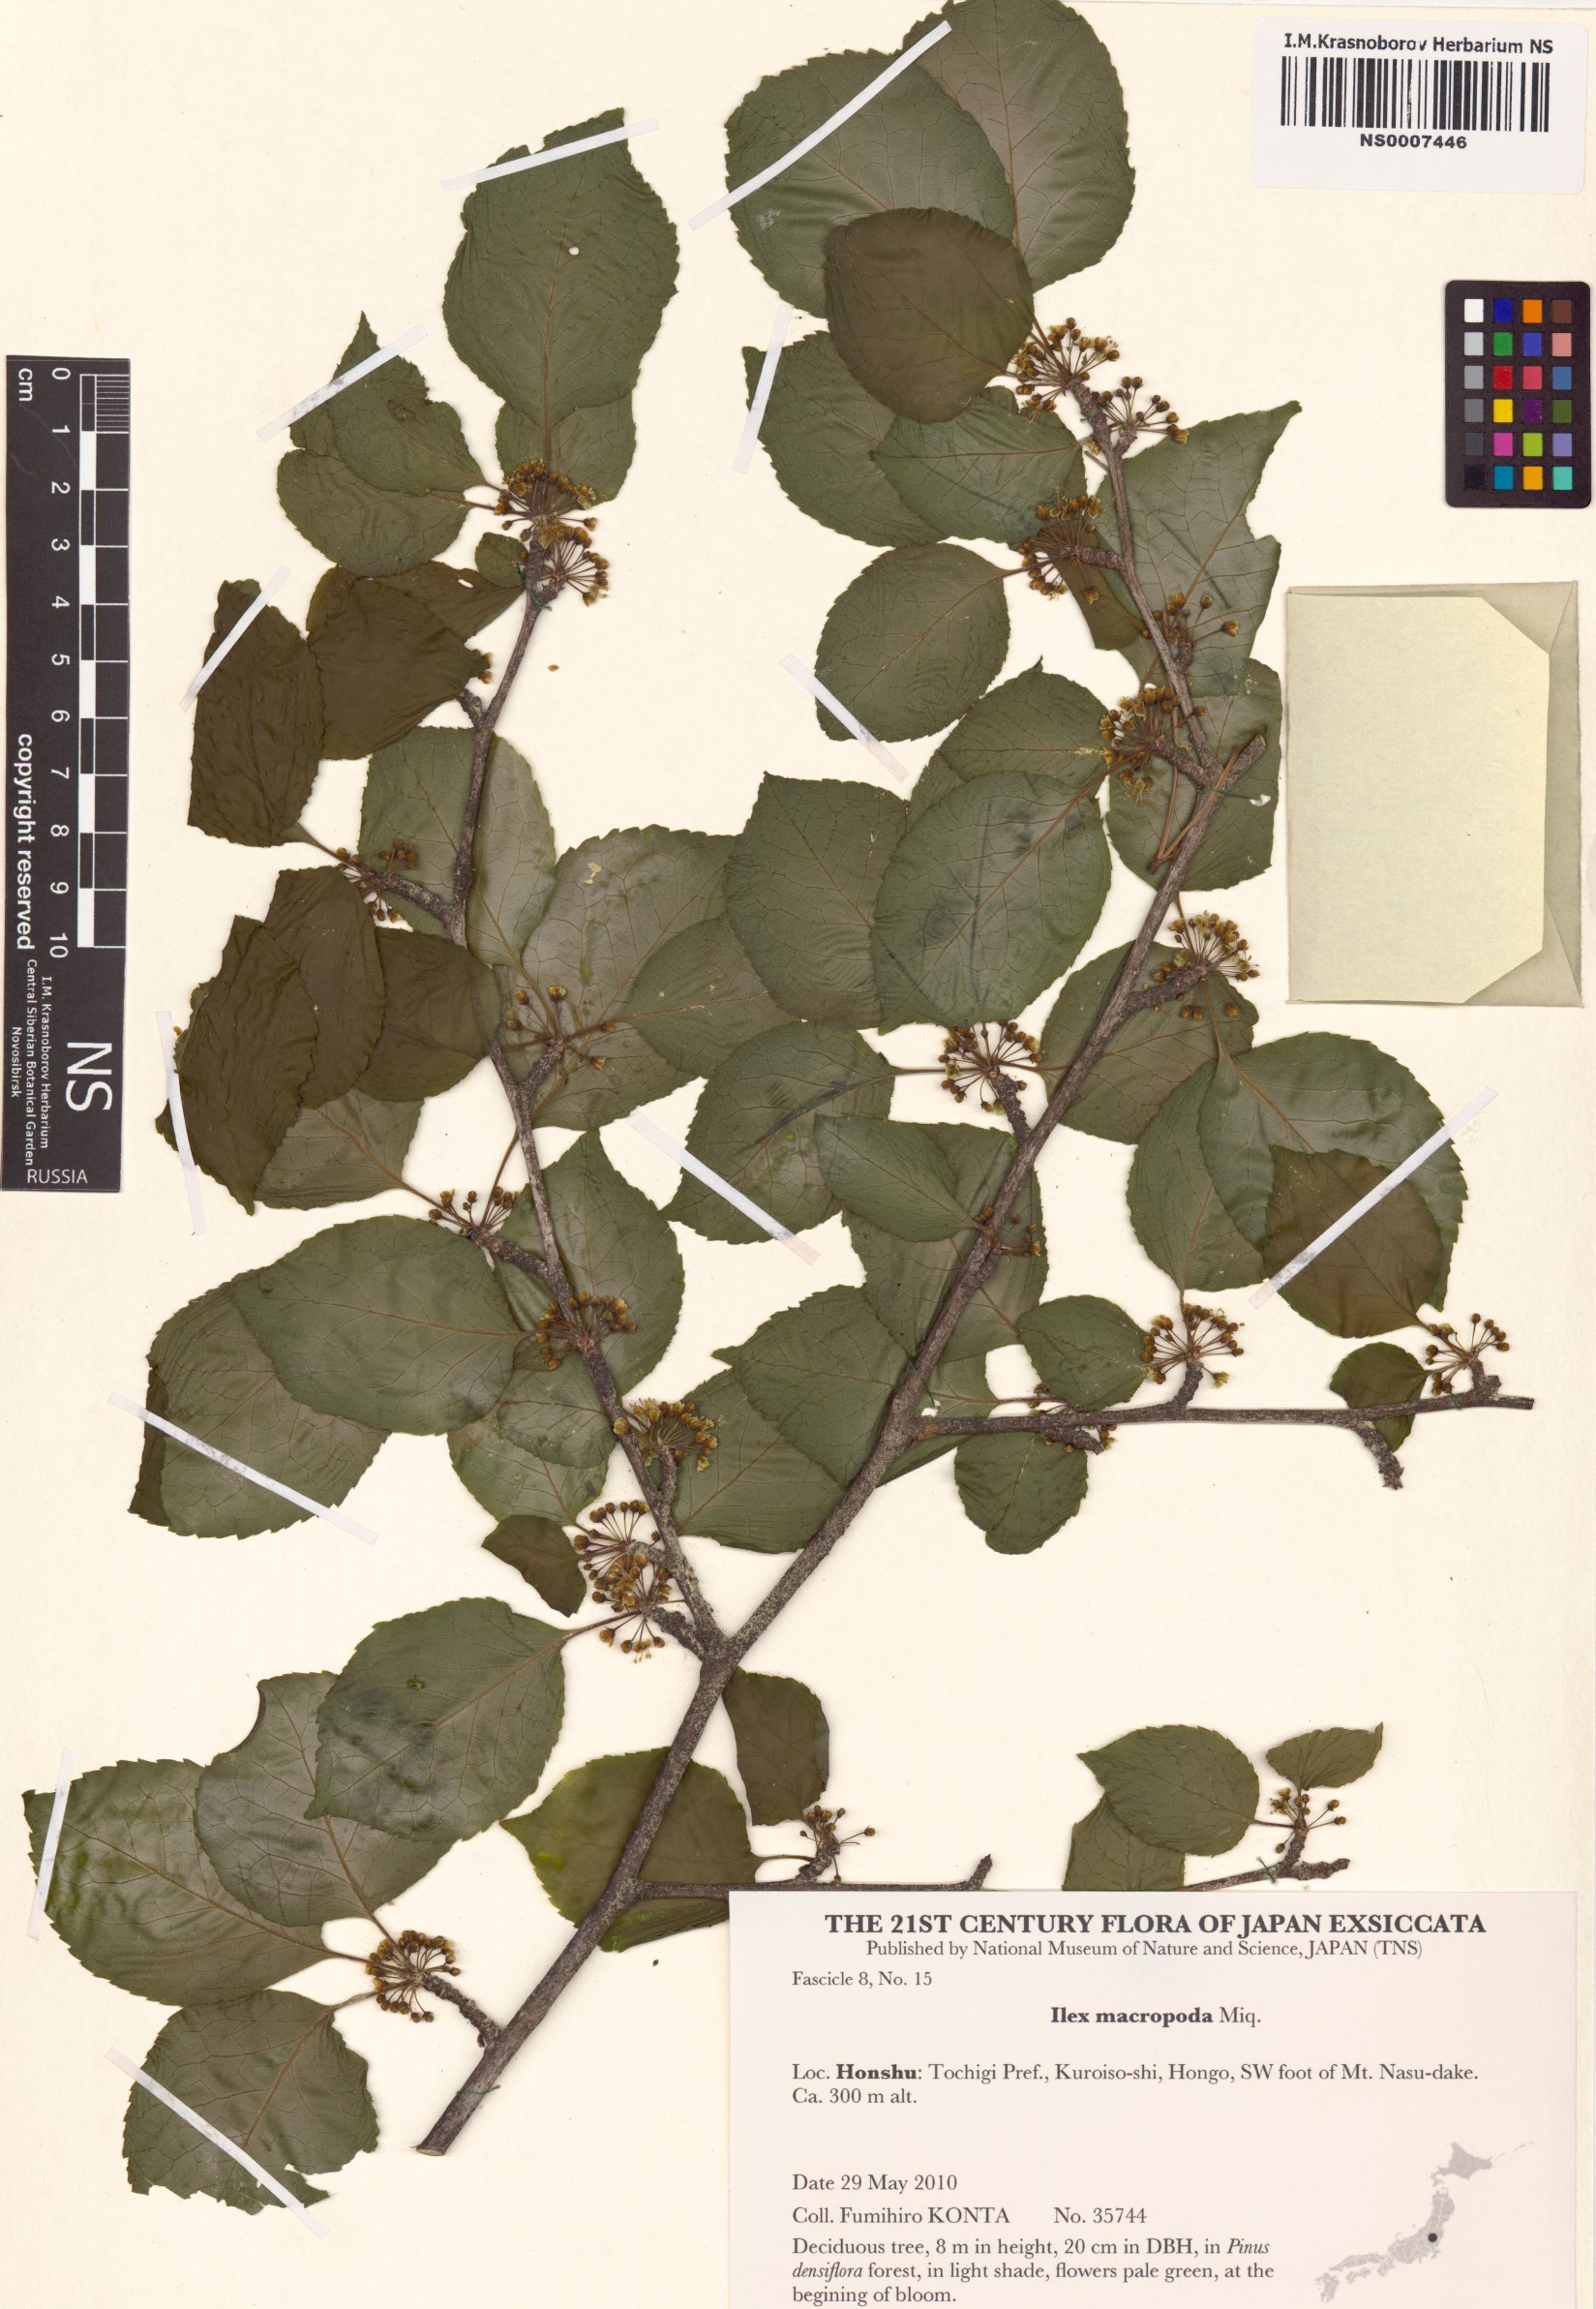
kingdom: Plantae
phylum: Tracheophyta
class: Magnoliopsida
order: Aquifoliales
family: Aquifoliaceae
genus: Ilex
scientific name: Ilex macropoda
